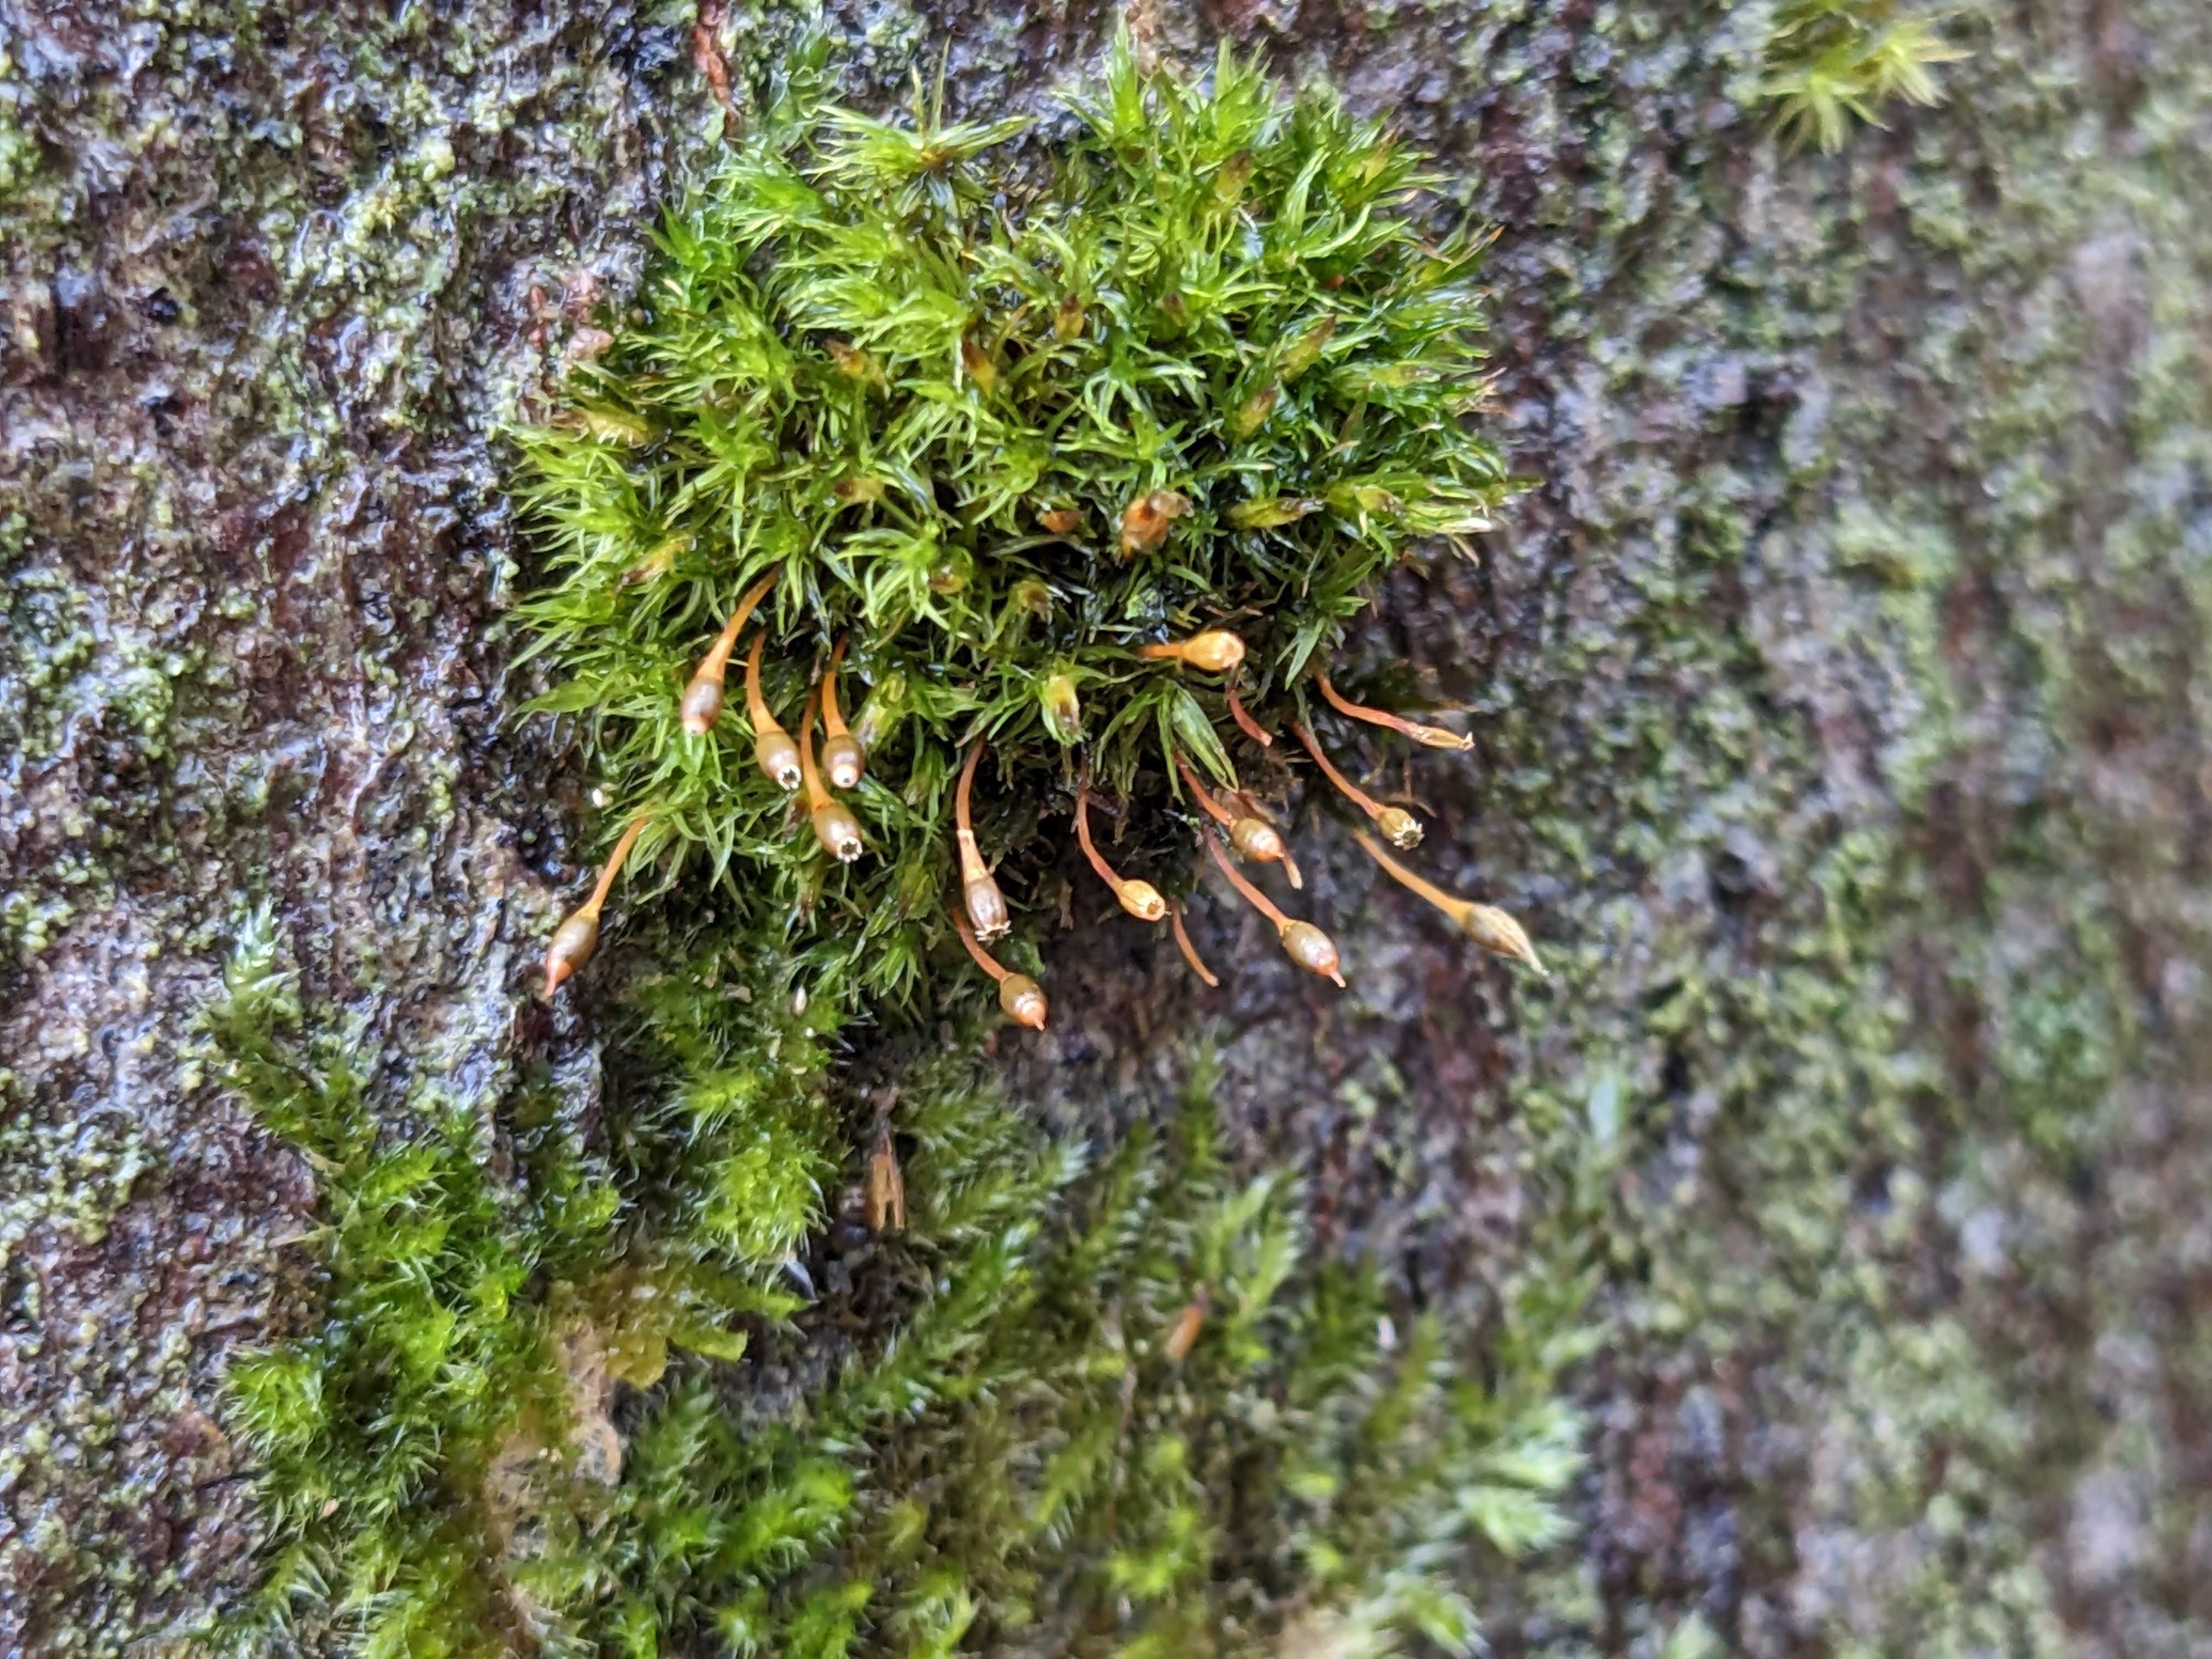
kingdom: Plantae
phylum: Bryophyta
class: Bryopsida
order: Orthotrichales
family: Orthotrichaceae
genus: Ulota
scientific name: Ulota bruchii
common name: Bruchs låddenhætte
